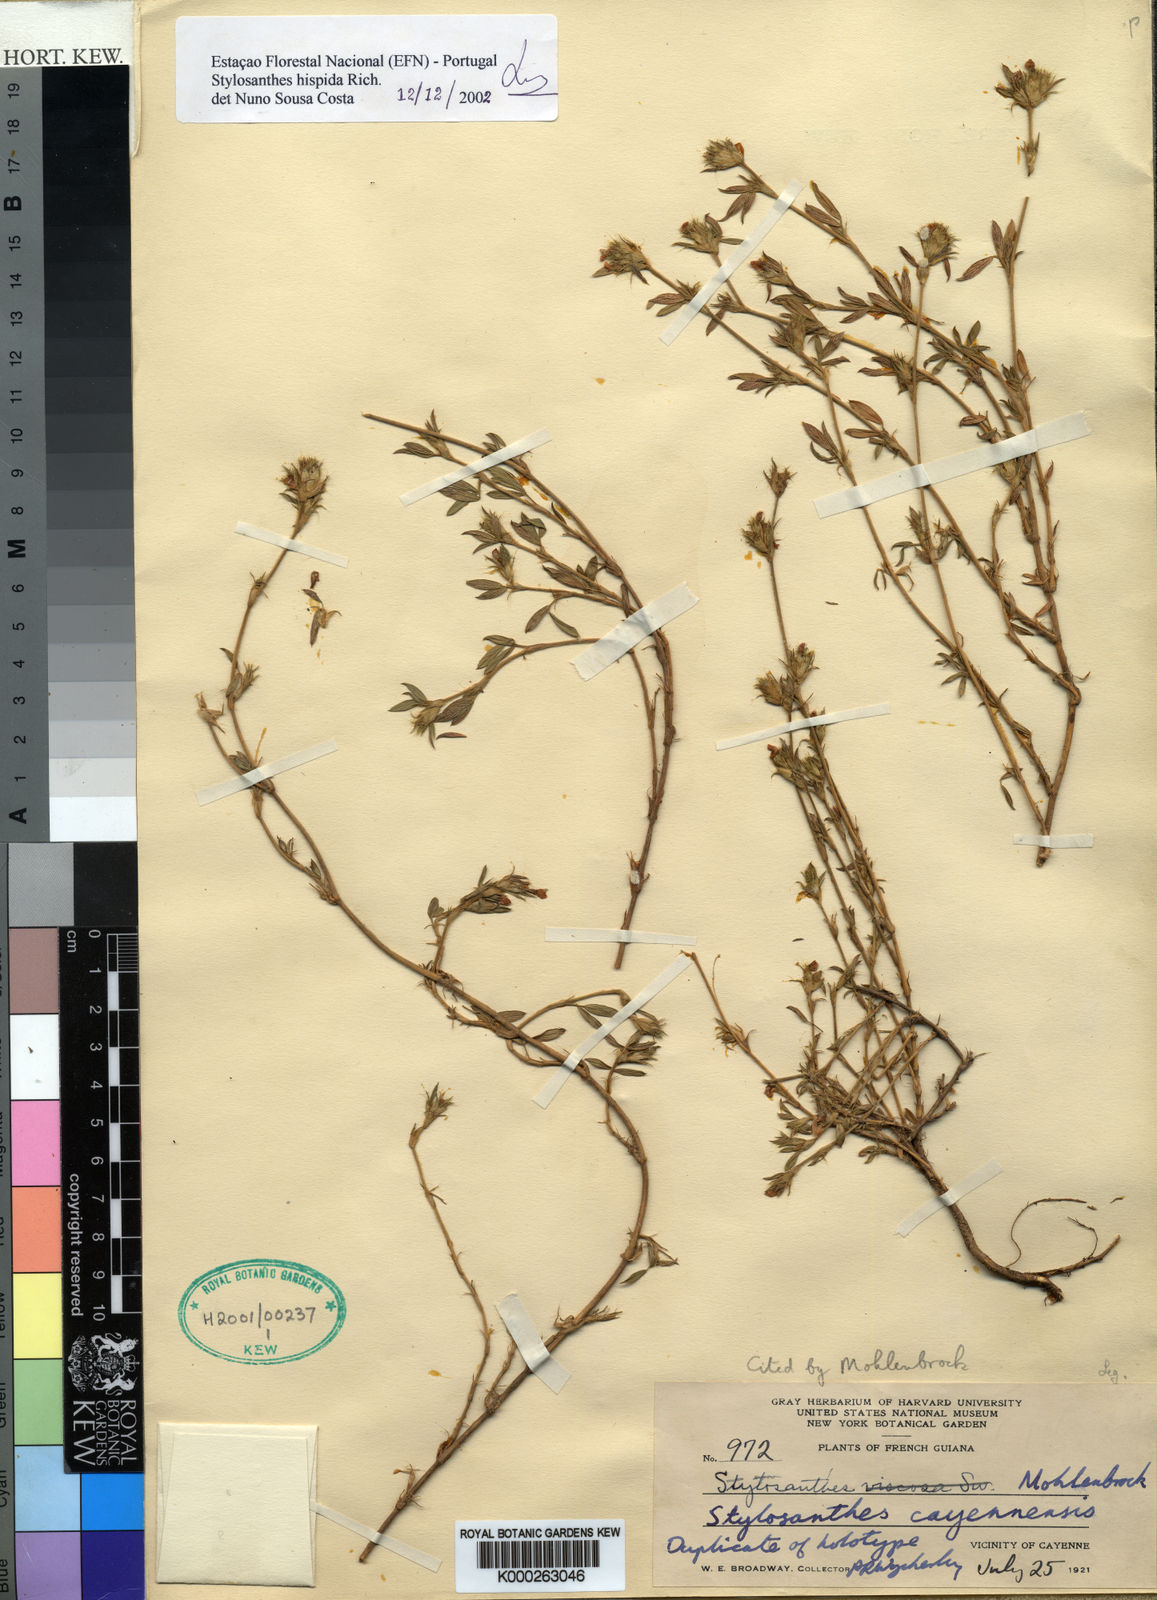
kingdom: Plantae
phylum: Tracheophyta
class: Magnoliopsida
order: Fabales
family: Fabaceae
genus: Stylosanthes
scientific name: Stylosanthes hispida
